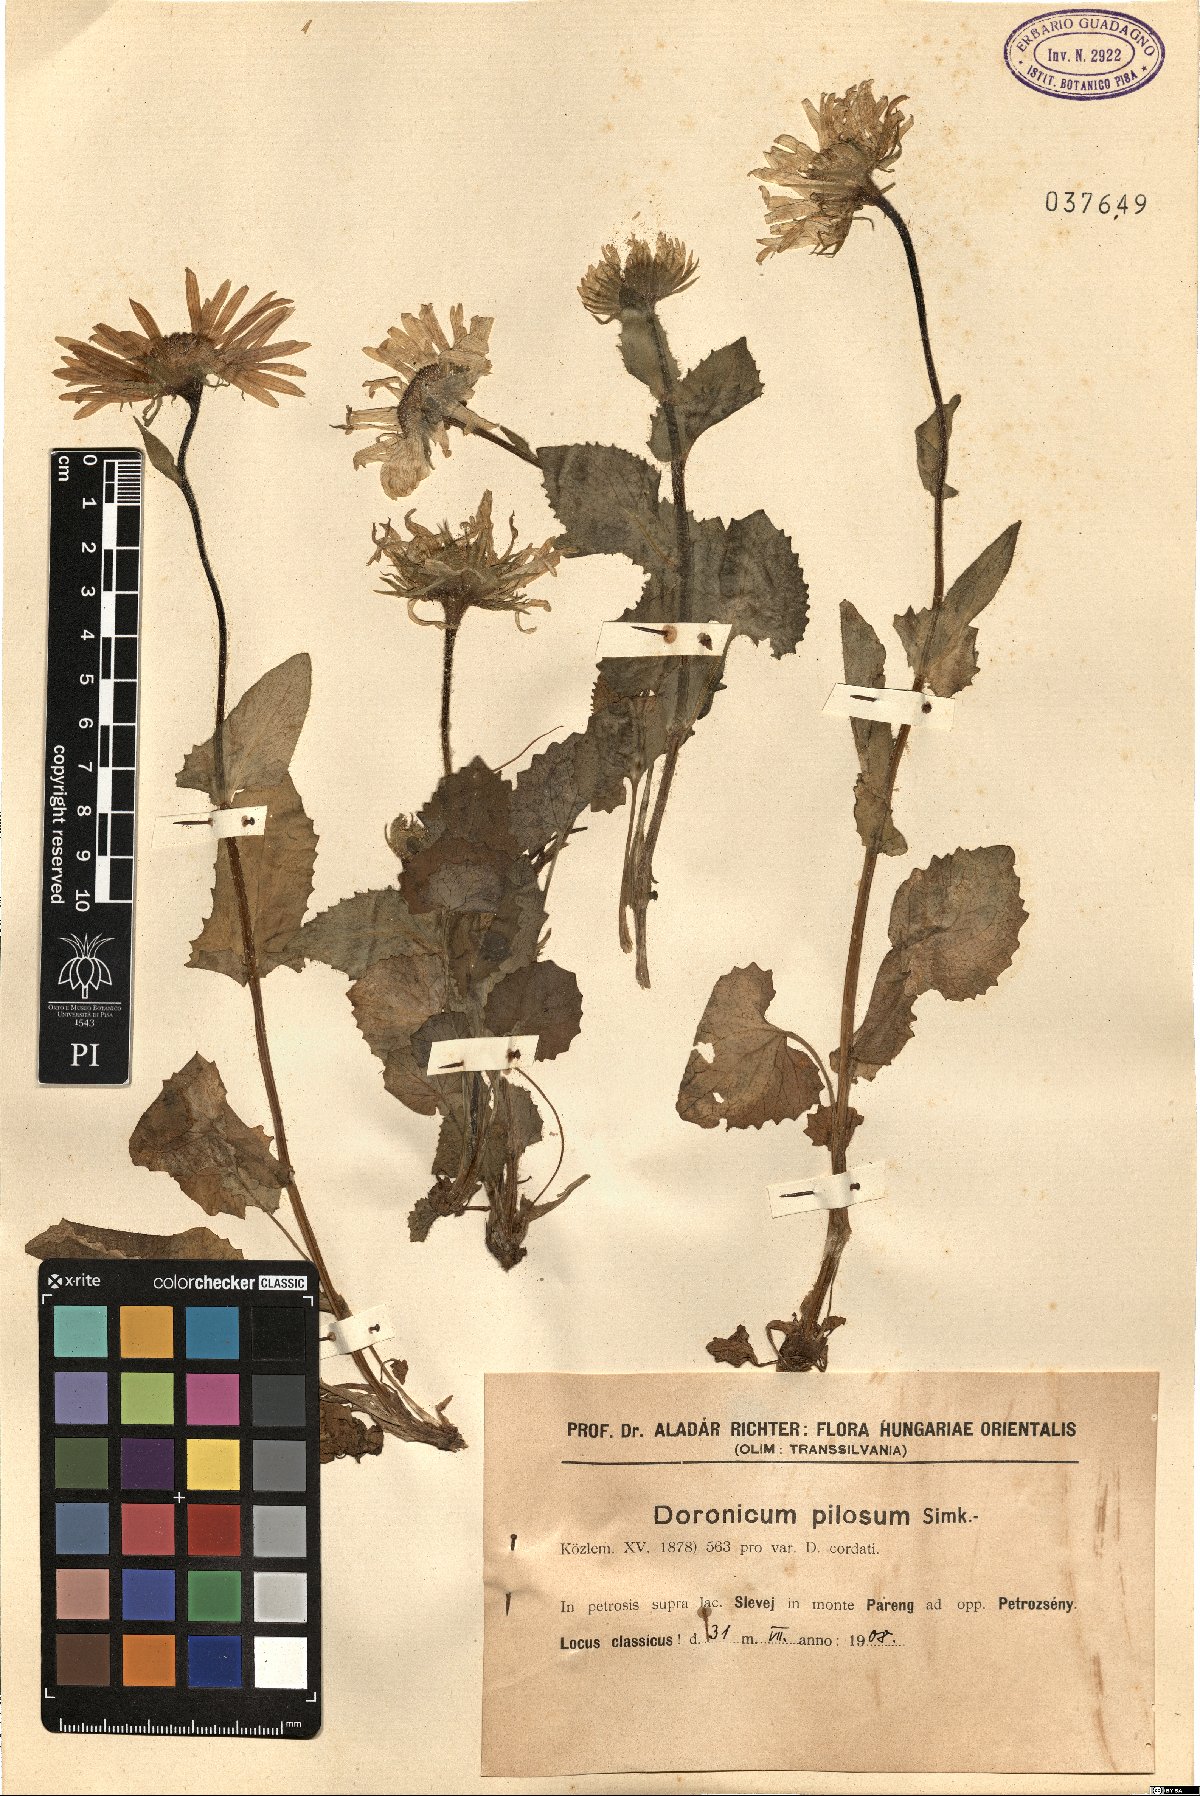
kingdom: Plantae
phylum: Tracheophyta
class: Magnoliopsida
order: Asterales
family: Asteraceae
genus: Doronicum
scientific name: Doronicum columnae
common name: Eastern leopard's-bane
